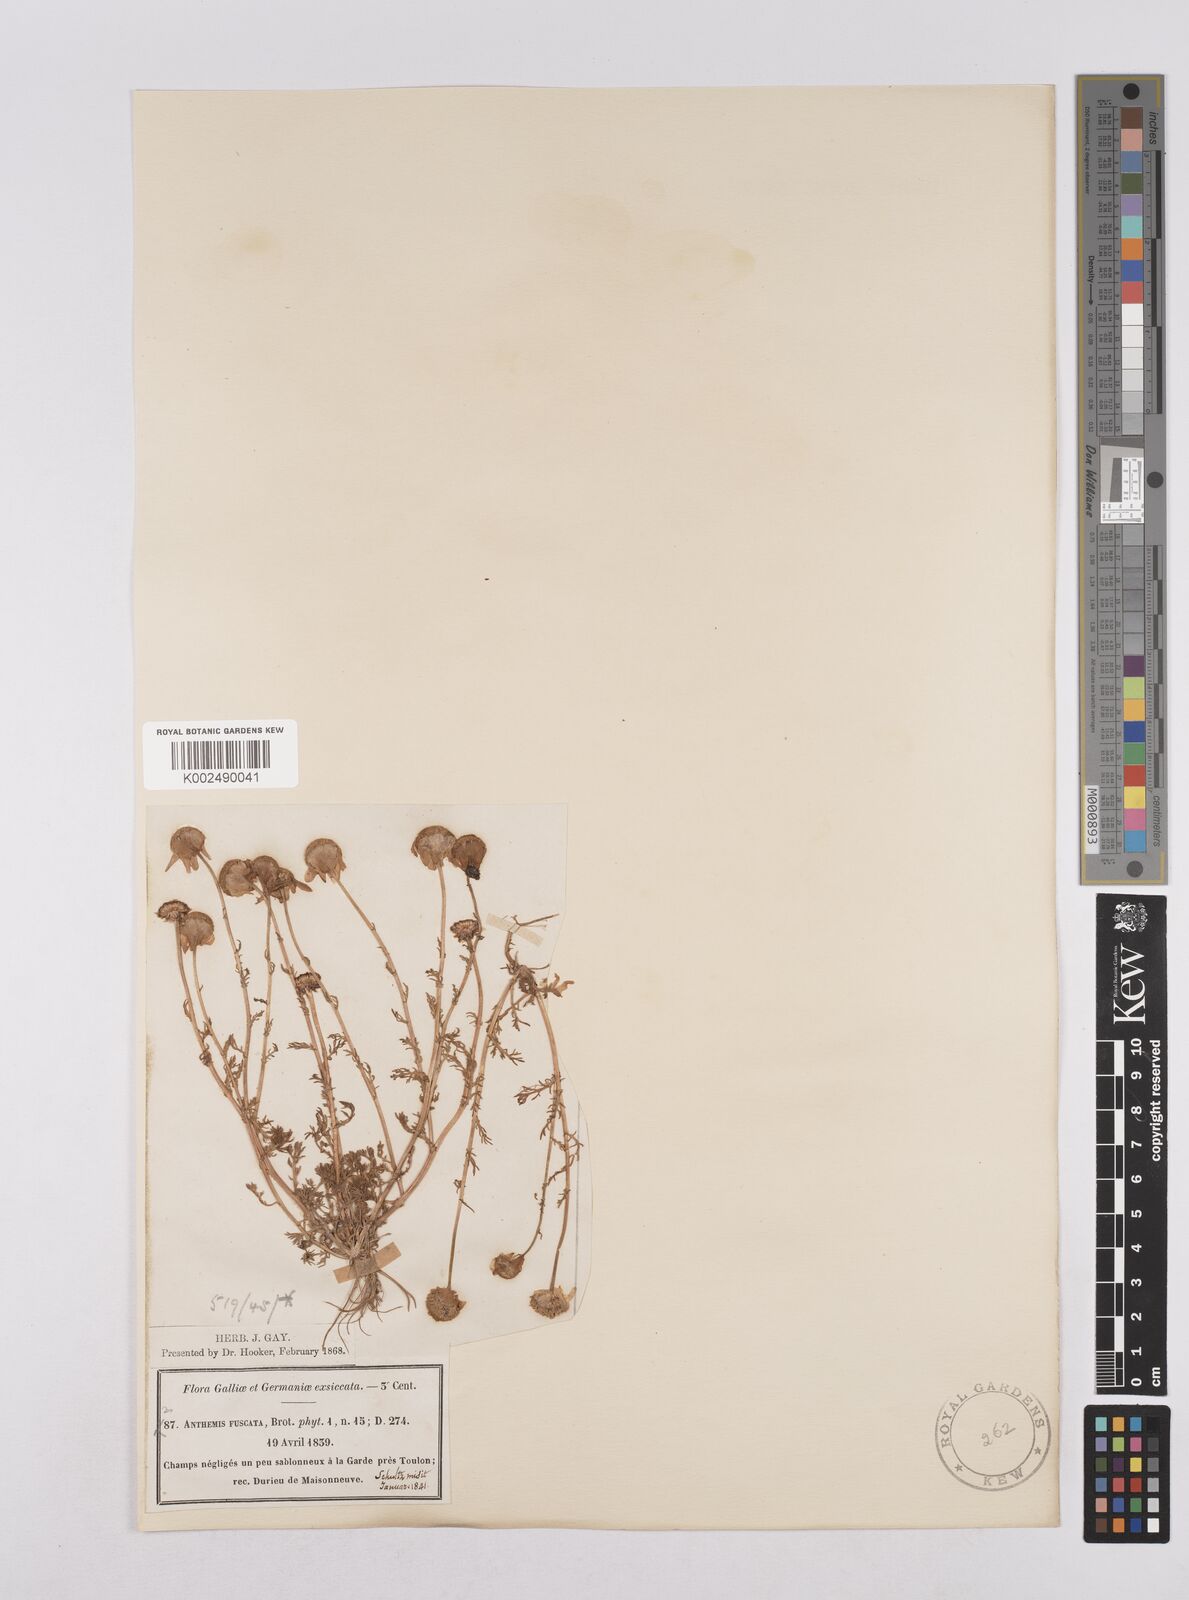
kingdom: Plantae
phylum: Tracheophyta
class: Magnoliopsida
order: Asterales
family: Asteraceae
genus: Chamaemelum
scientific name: Chamaemelum fuscatum
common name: Chamomile
